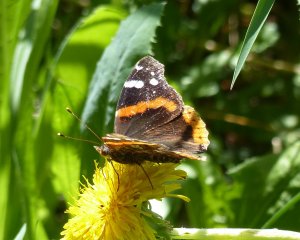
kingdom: Animalia
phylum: Arthropoda
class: Insecta
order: Lepidoptera
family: Nymphalidae
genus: Vanessa
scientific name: Vanessa atalanta
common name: Red Admiral
